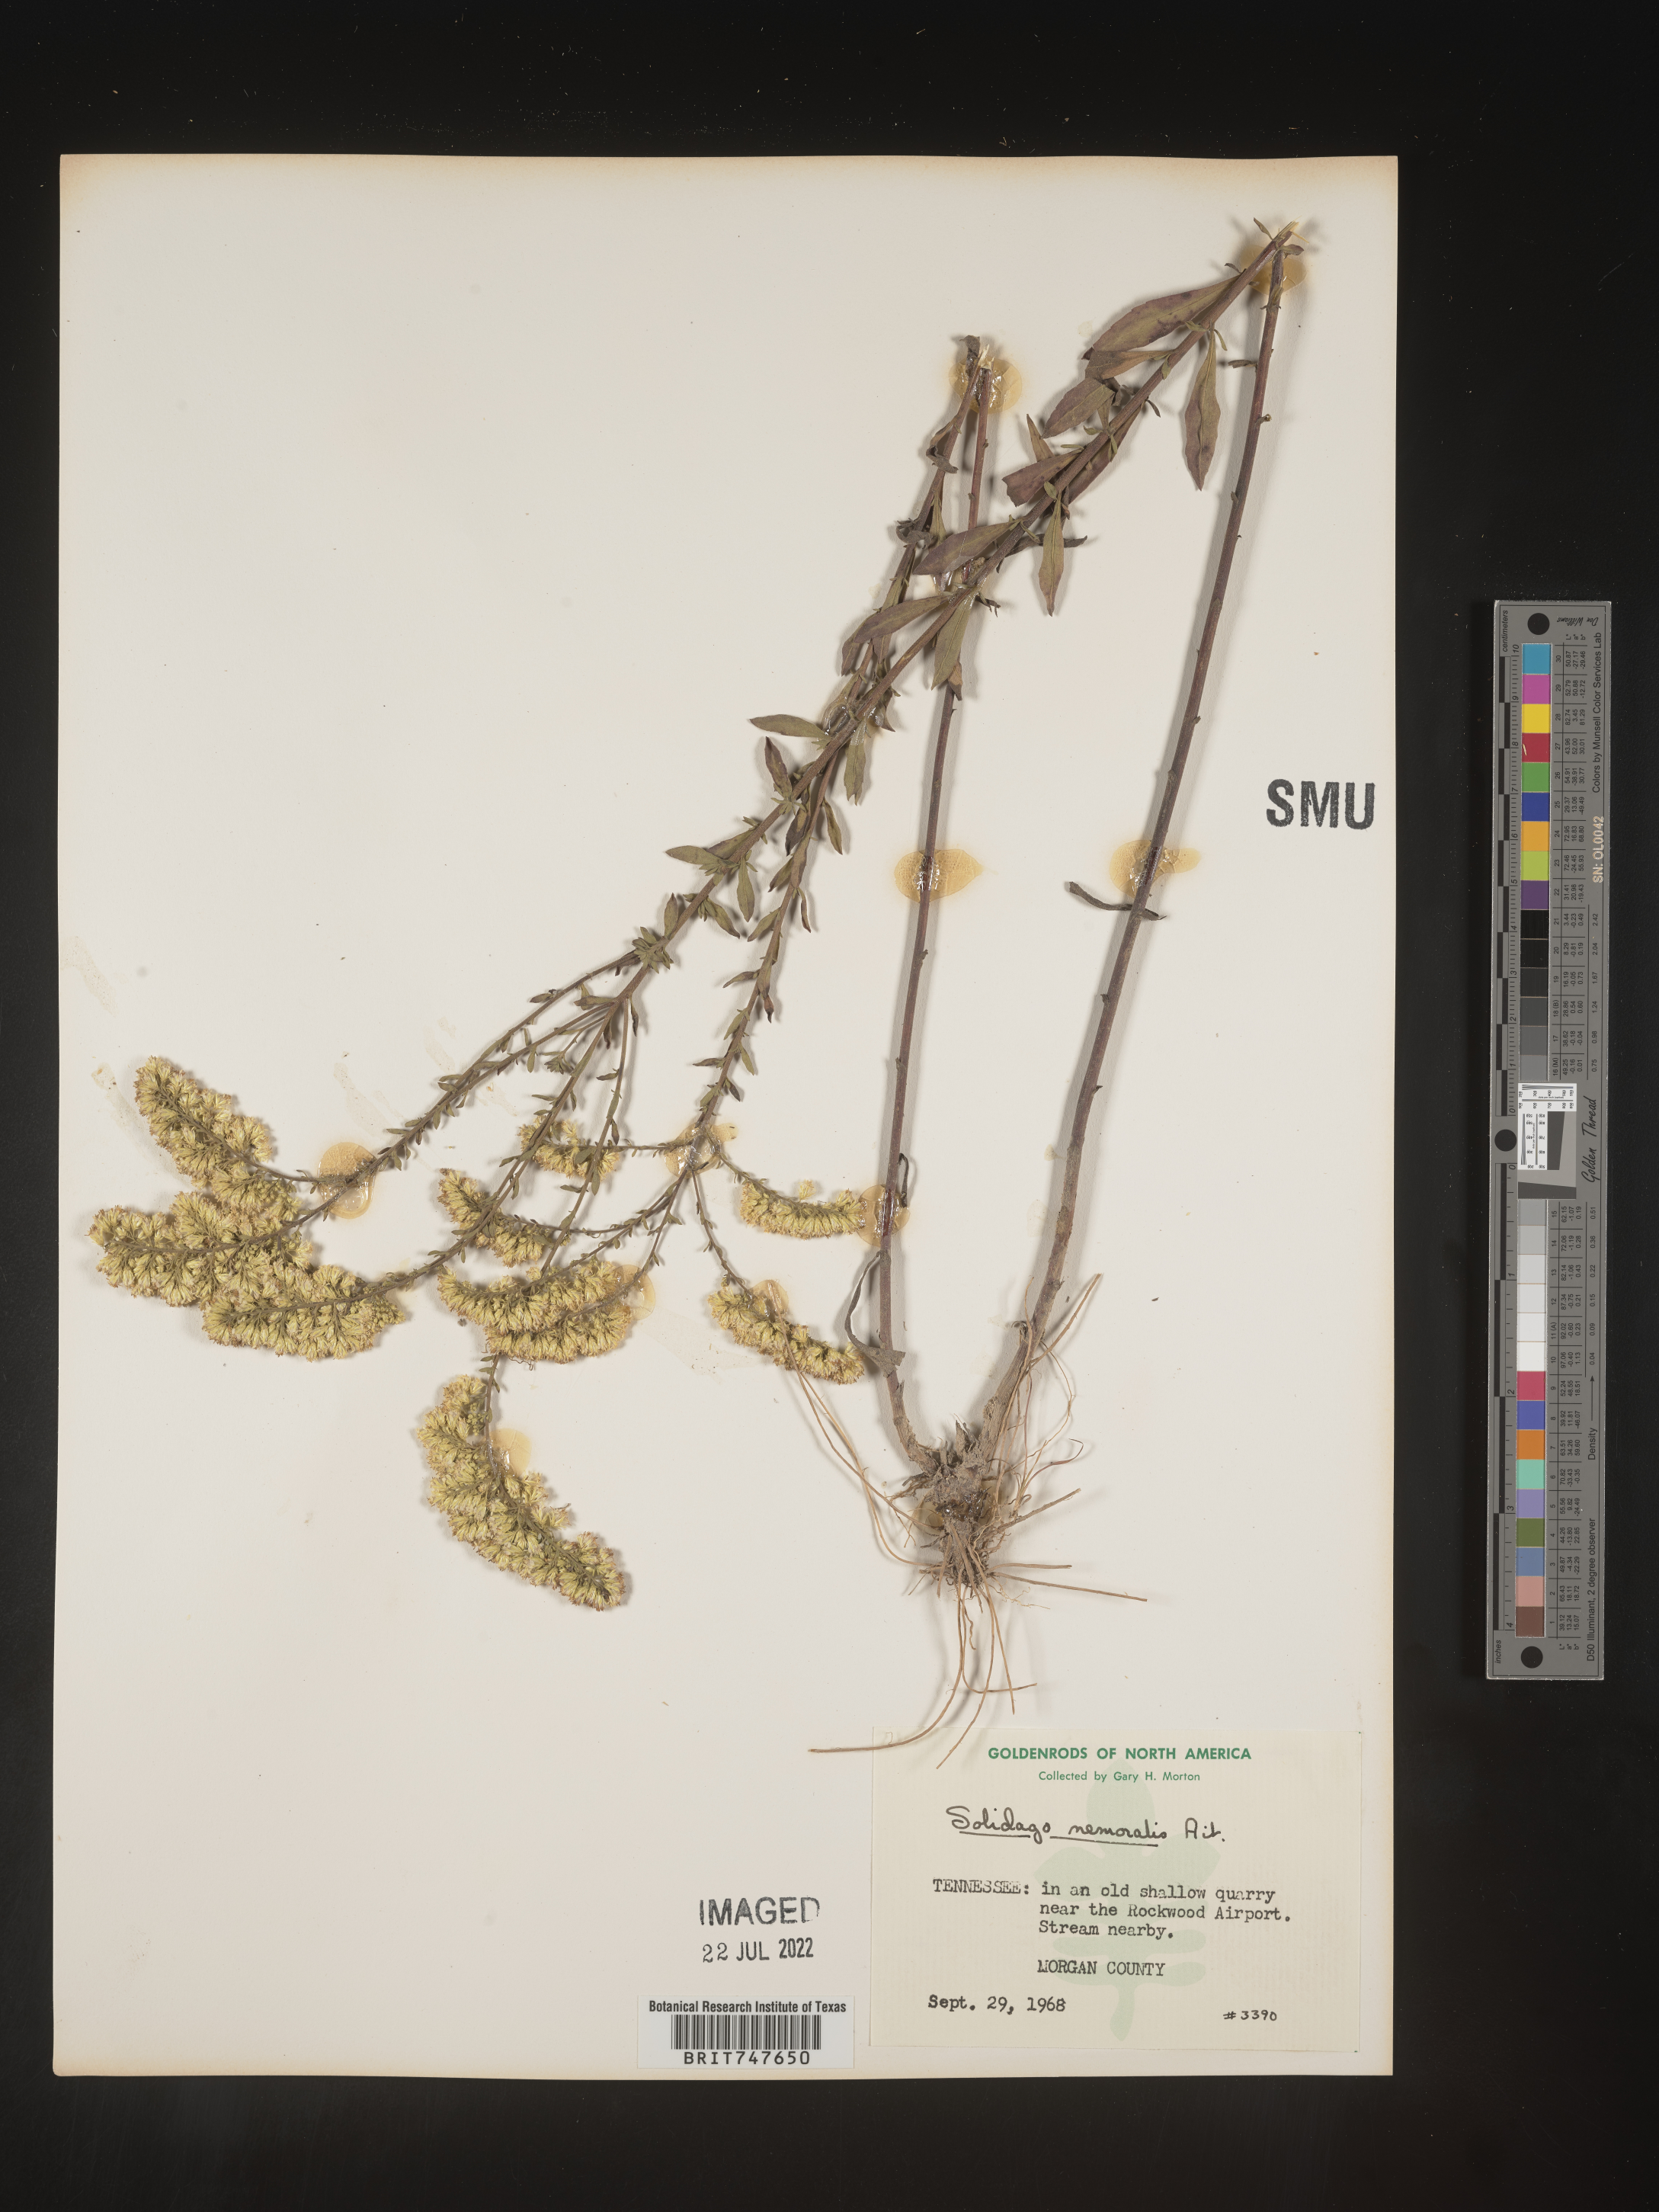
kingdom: Plantae
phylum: Tracheophyta
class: Magnoliopsida
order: Asterales
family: Asteraceae
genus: Solidago
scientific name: Solidago nemoralis
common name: Grey goldenrod
